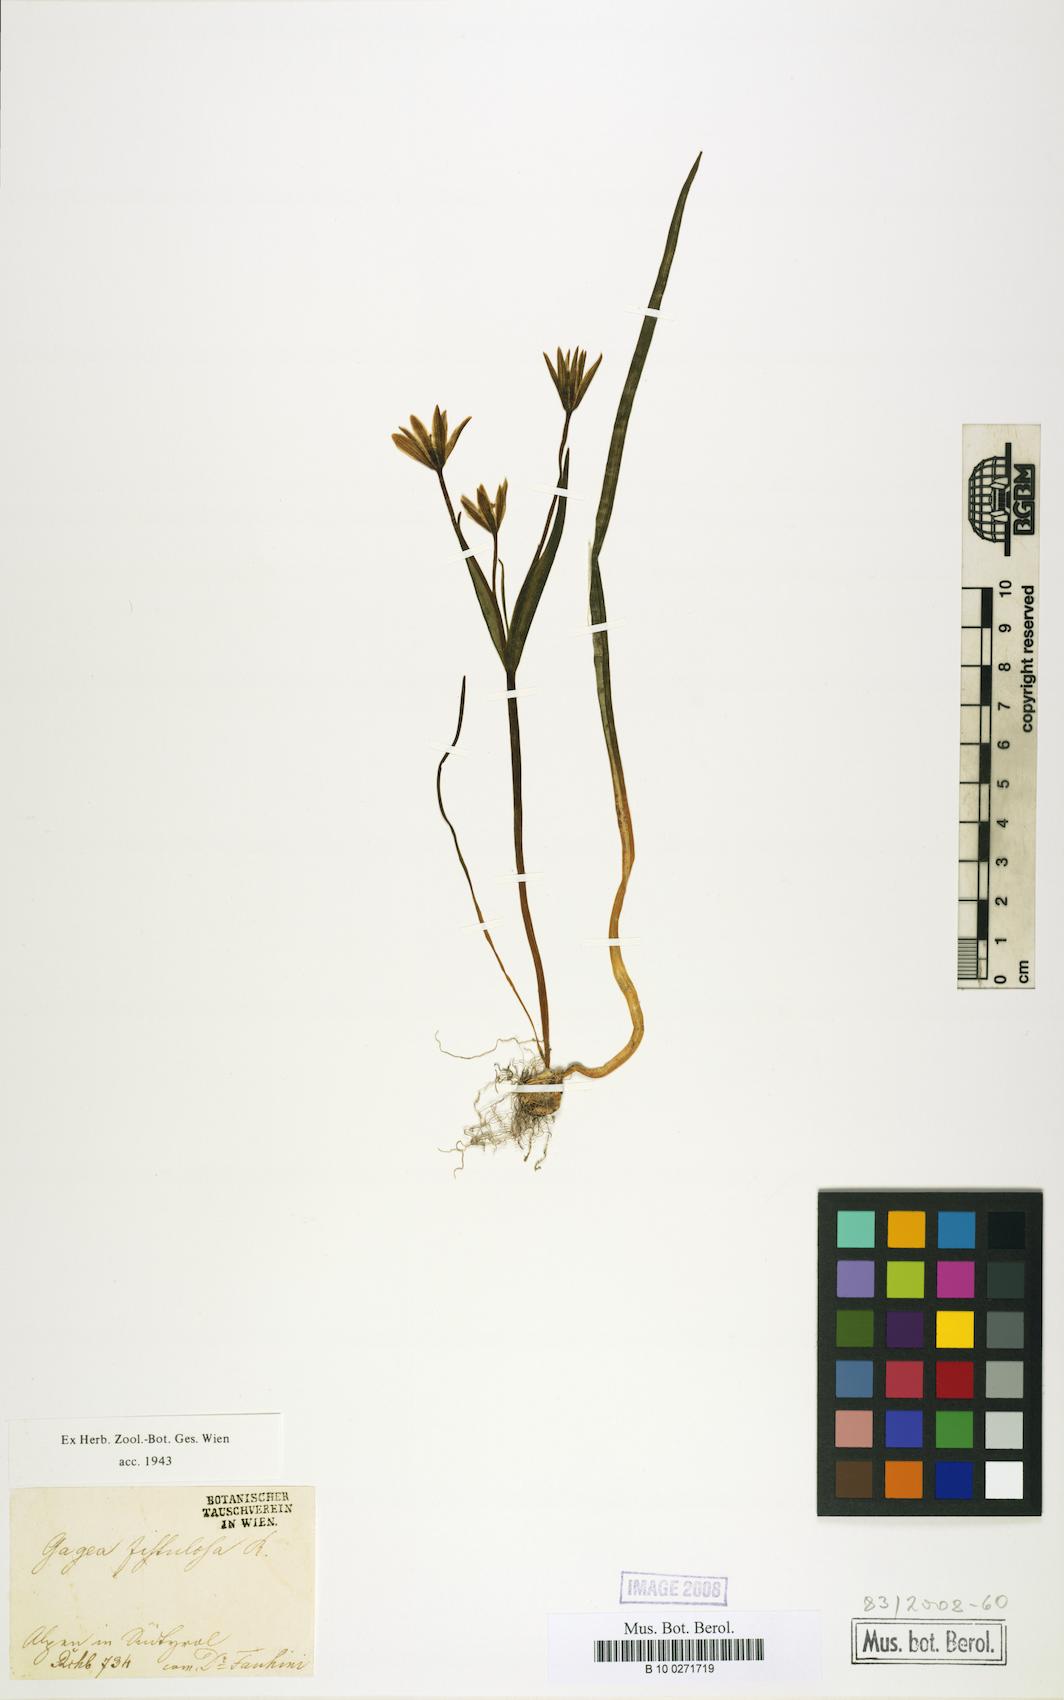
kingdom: Plantae
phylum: Tracheophyta
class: Liliopsida
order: Liliales
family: Liliaceae
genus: Gagea
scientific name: Gagea bohemica
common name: Early star-of-bethlehem
